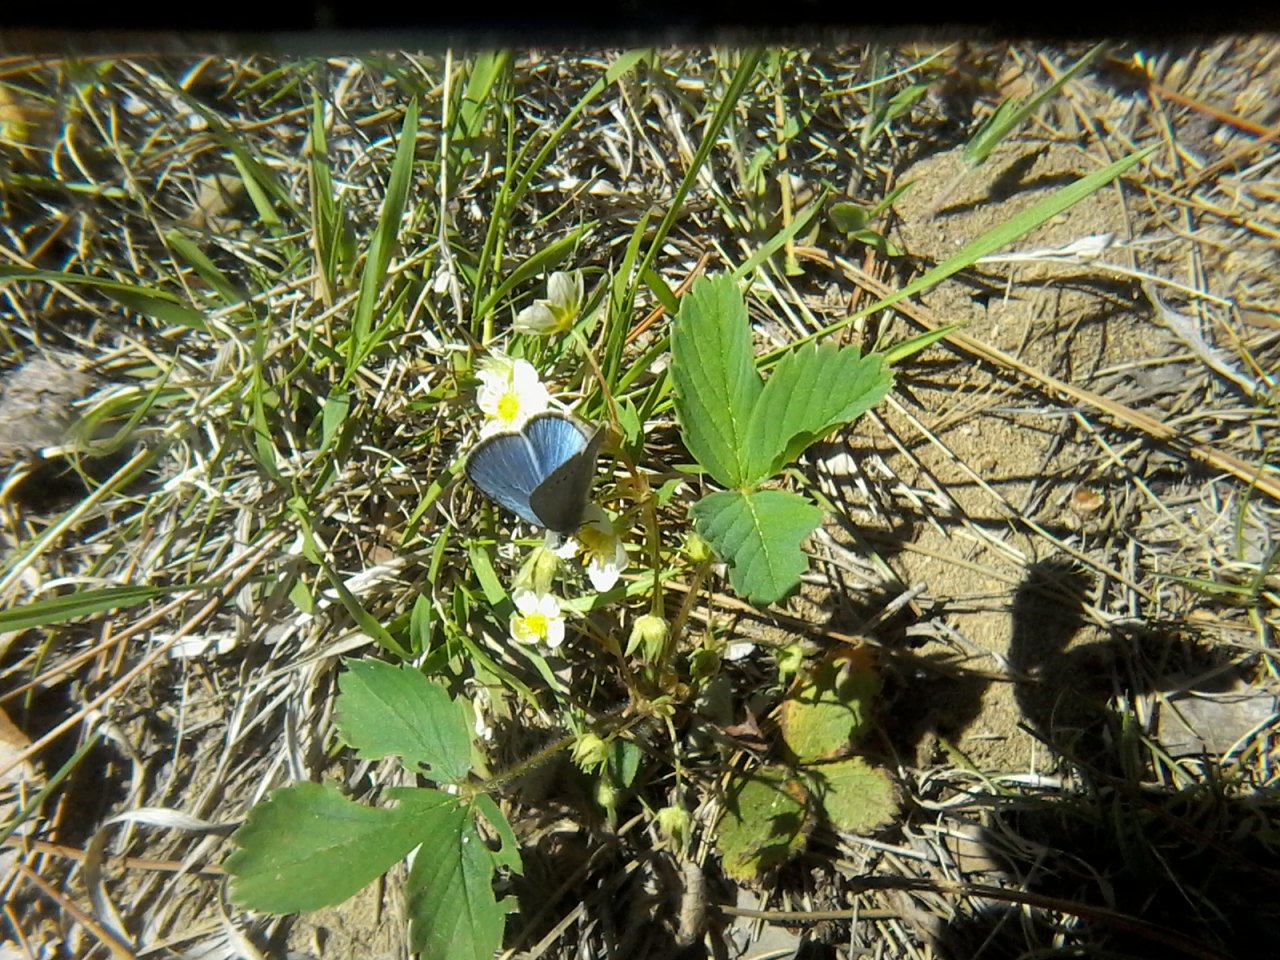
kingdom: Animalia
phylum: Arthropoda
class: Insecta
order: Lepidoptera
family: Lycaenidae
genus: Glaucopsyche
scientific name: Glaucopsyche lygdamus
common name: Silvery Blue
